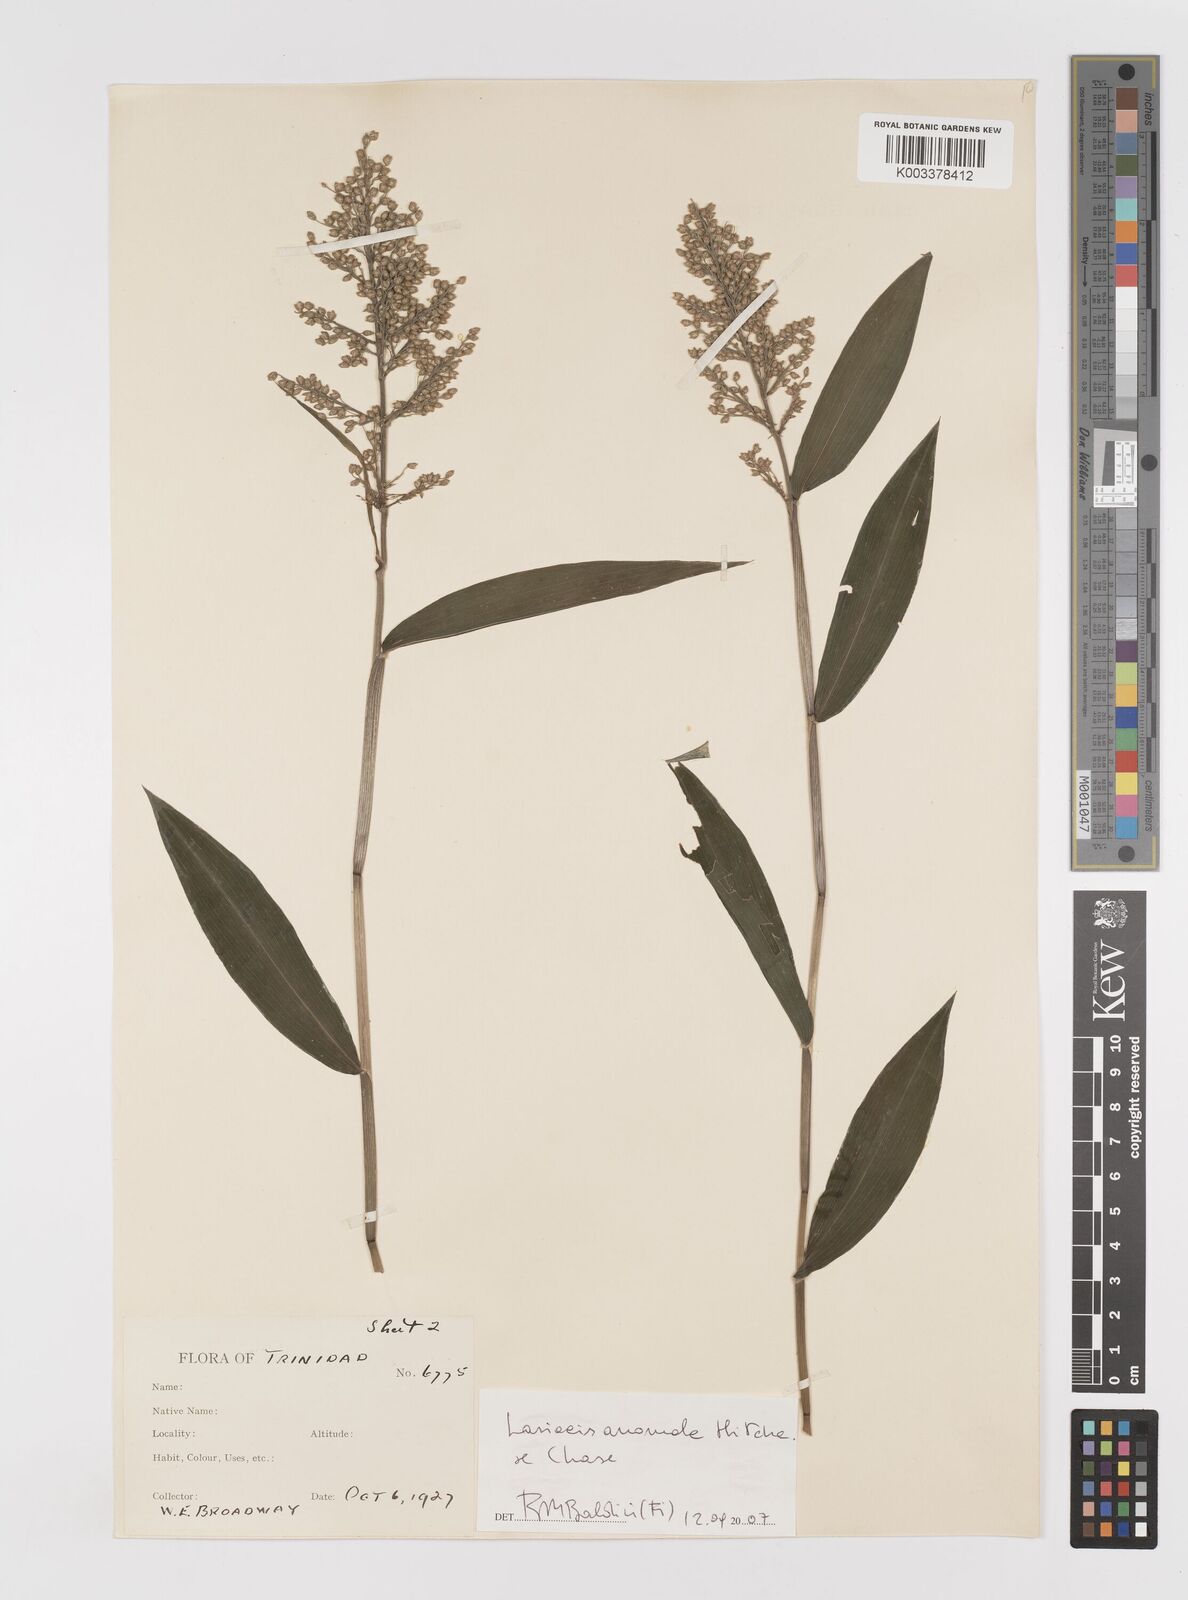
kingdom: Plantae
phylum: Tracheophyta
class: Liliopsida
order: Poales
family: Poaceae
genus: Lasiacis
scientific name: Lasiacis anomala
